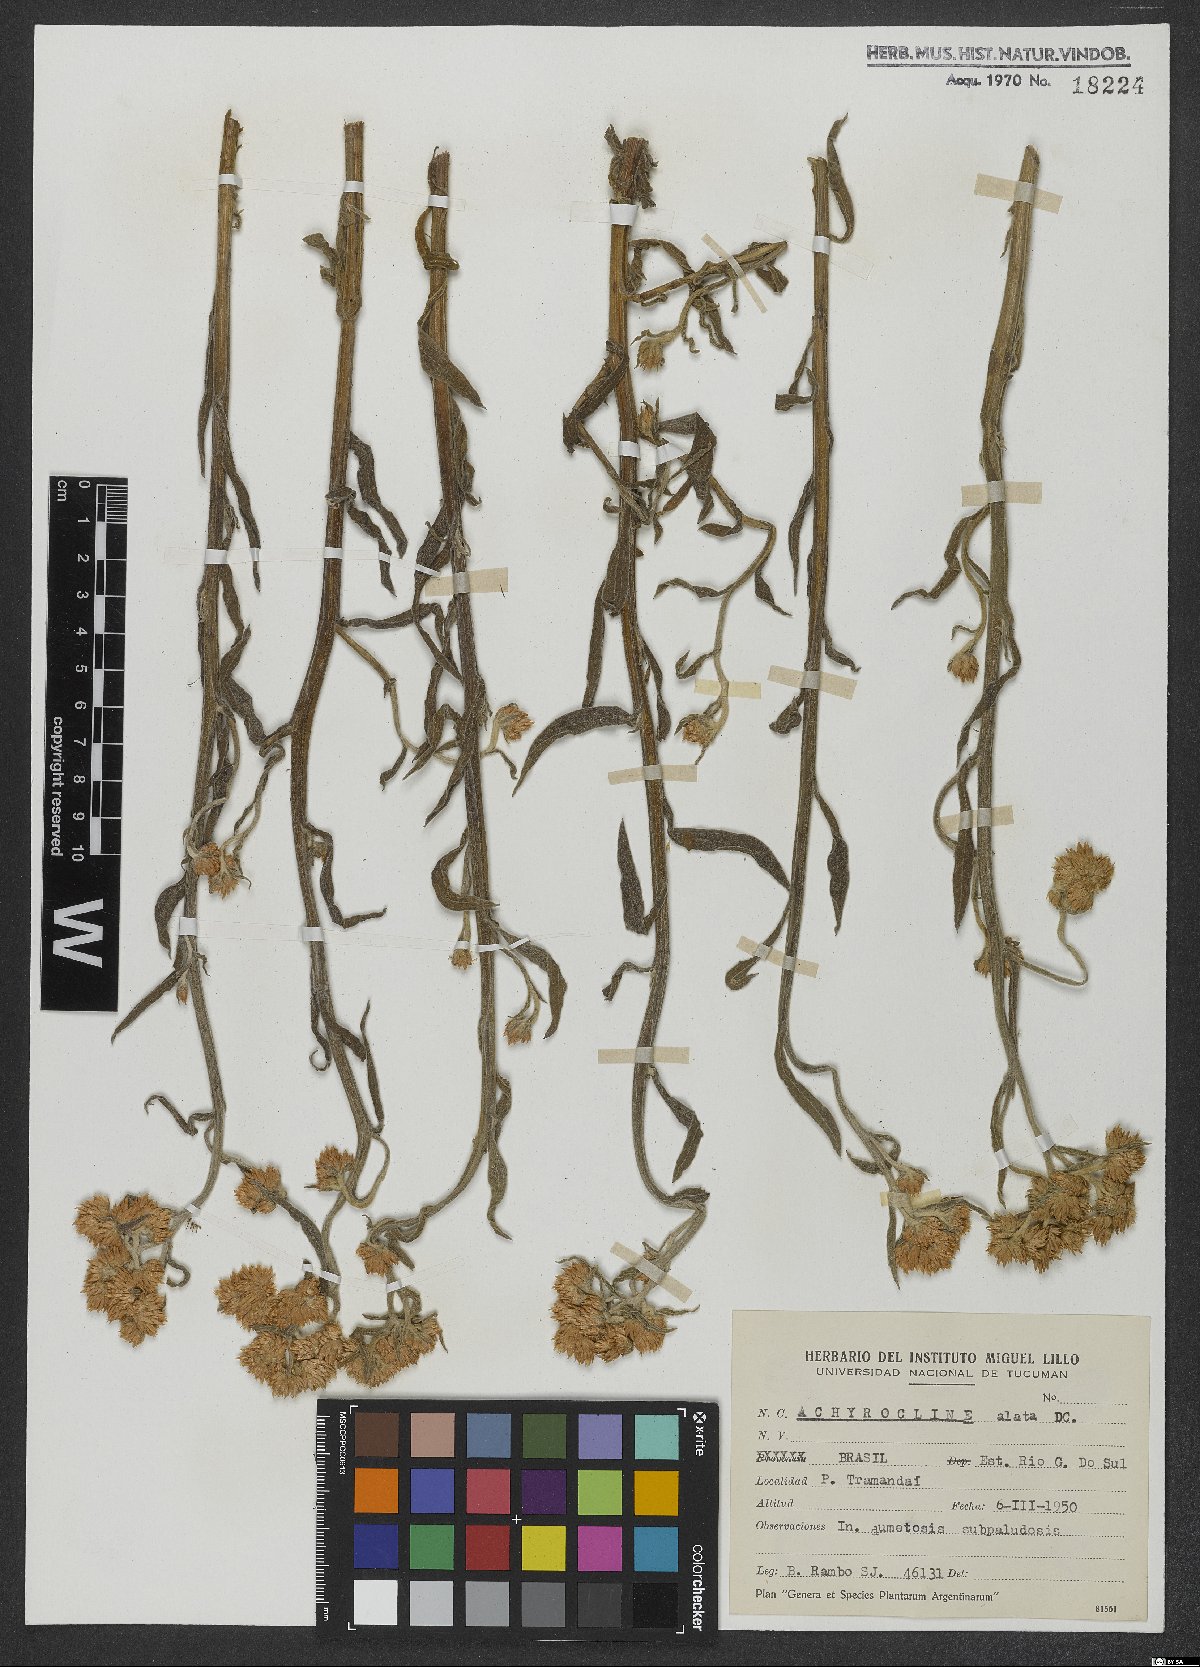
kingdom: Plantae
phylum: Tracheophyta
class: Magnoliopsida
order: Asterales
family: Asteraceae
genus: Achyrocline
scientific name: Achyrocline alata
